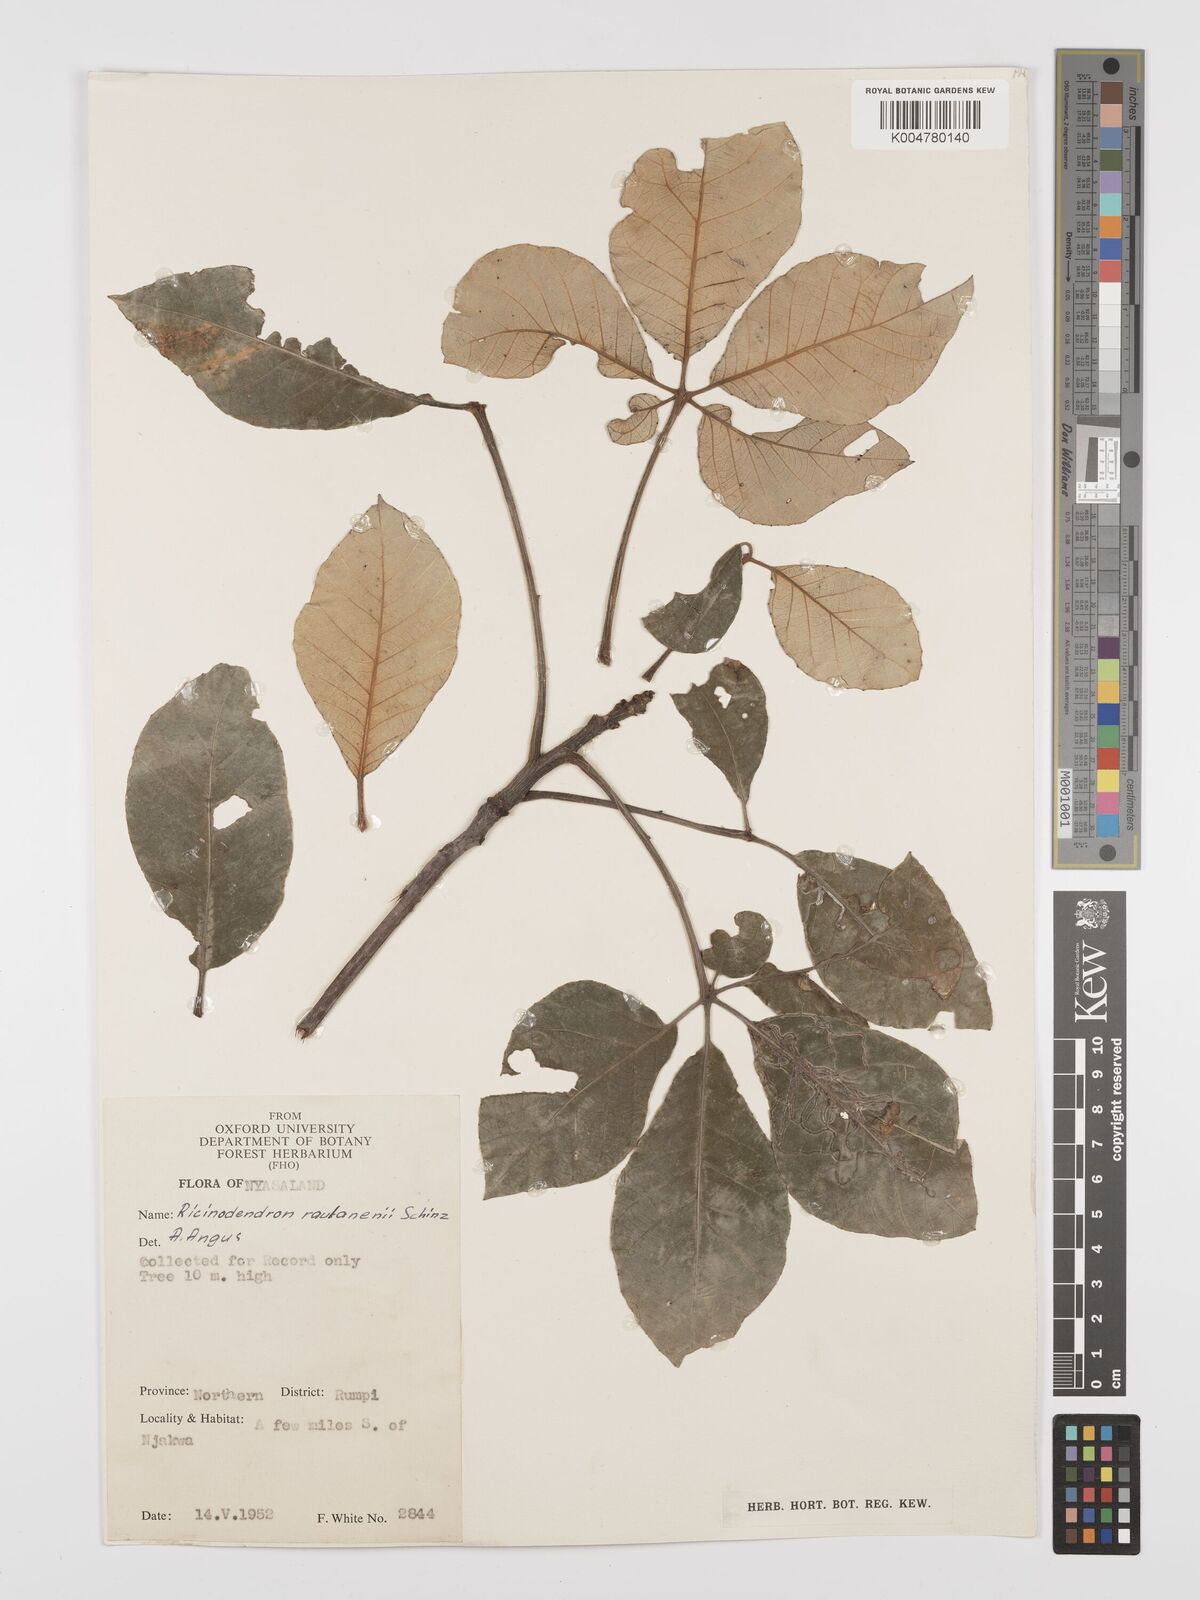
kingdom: Plantae
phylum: Tracheophyta
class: Magnoliopsida
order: Malpighiales
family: Euphorbiaceae
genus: Schinziophyton
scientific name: Schinziophyton rautanenii
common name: Manketti
